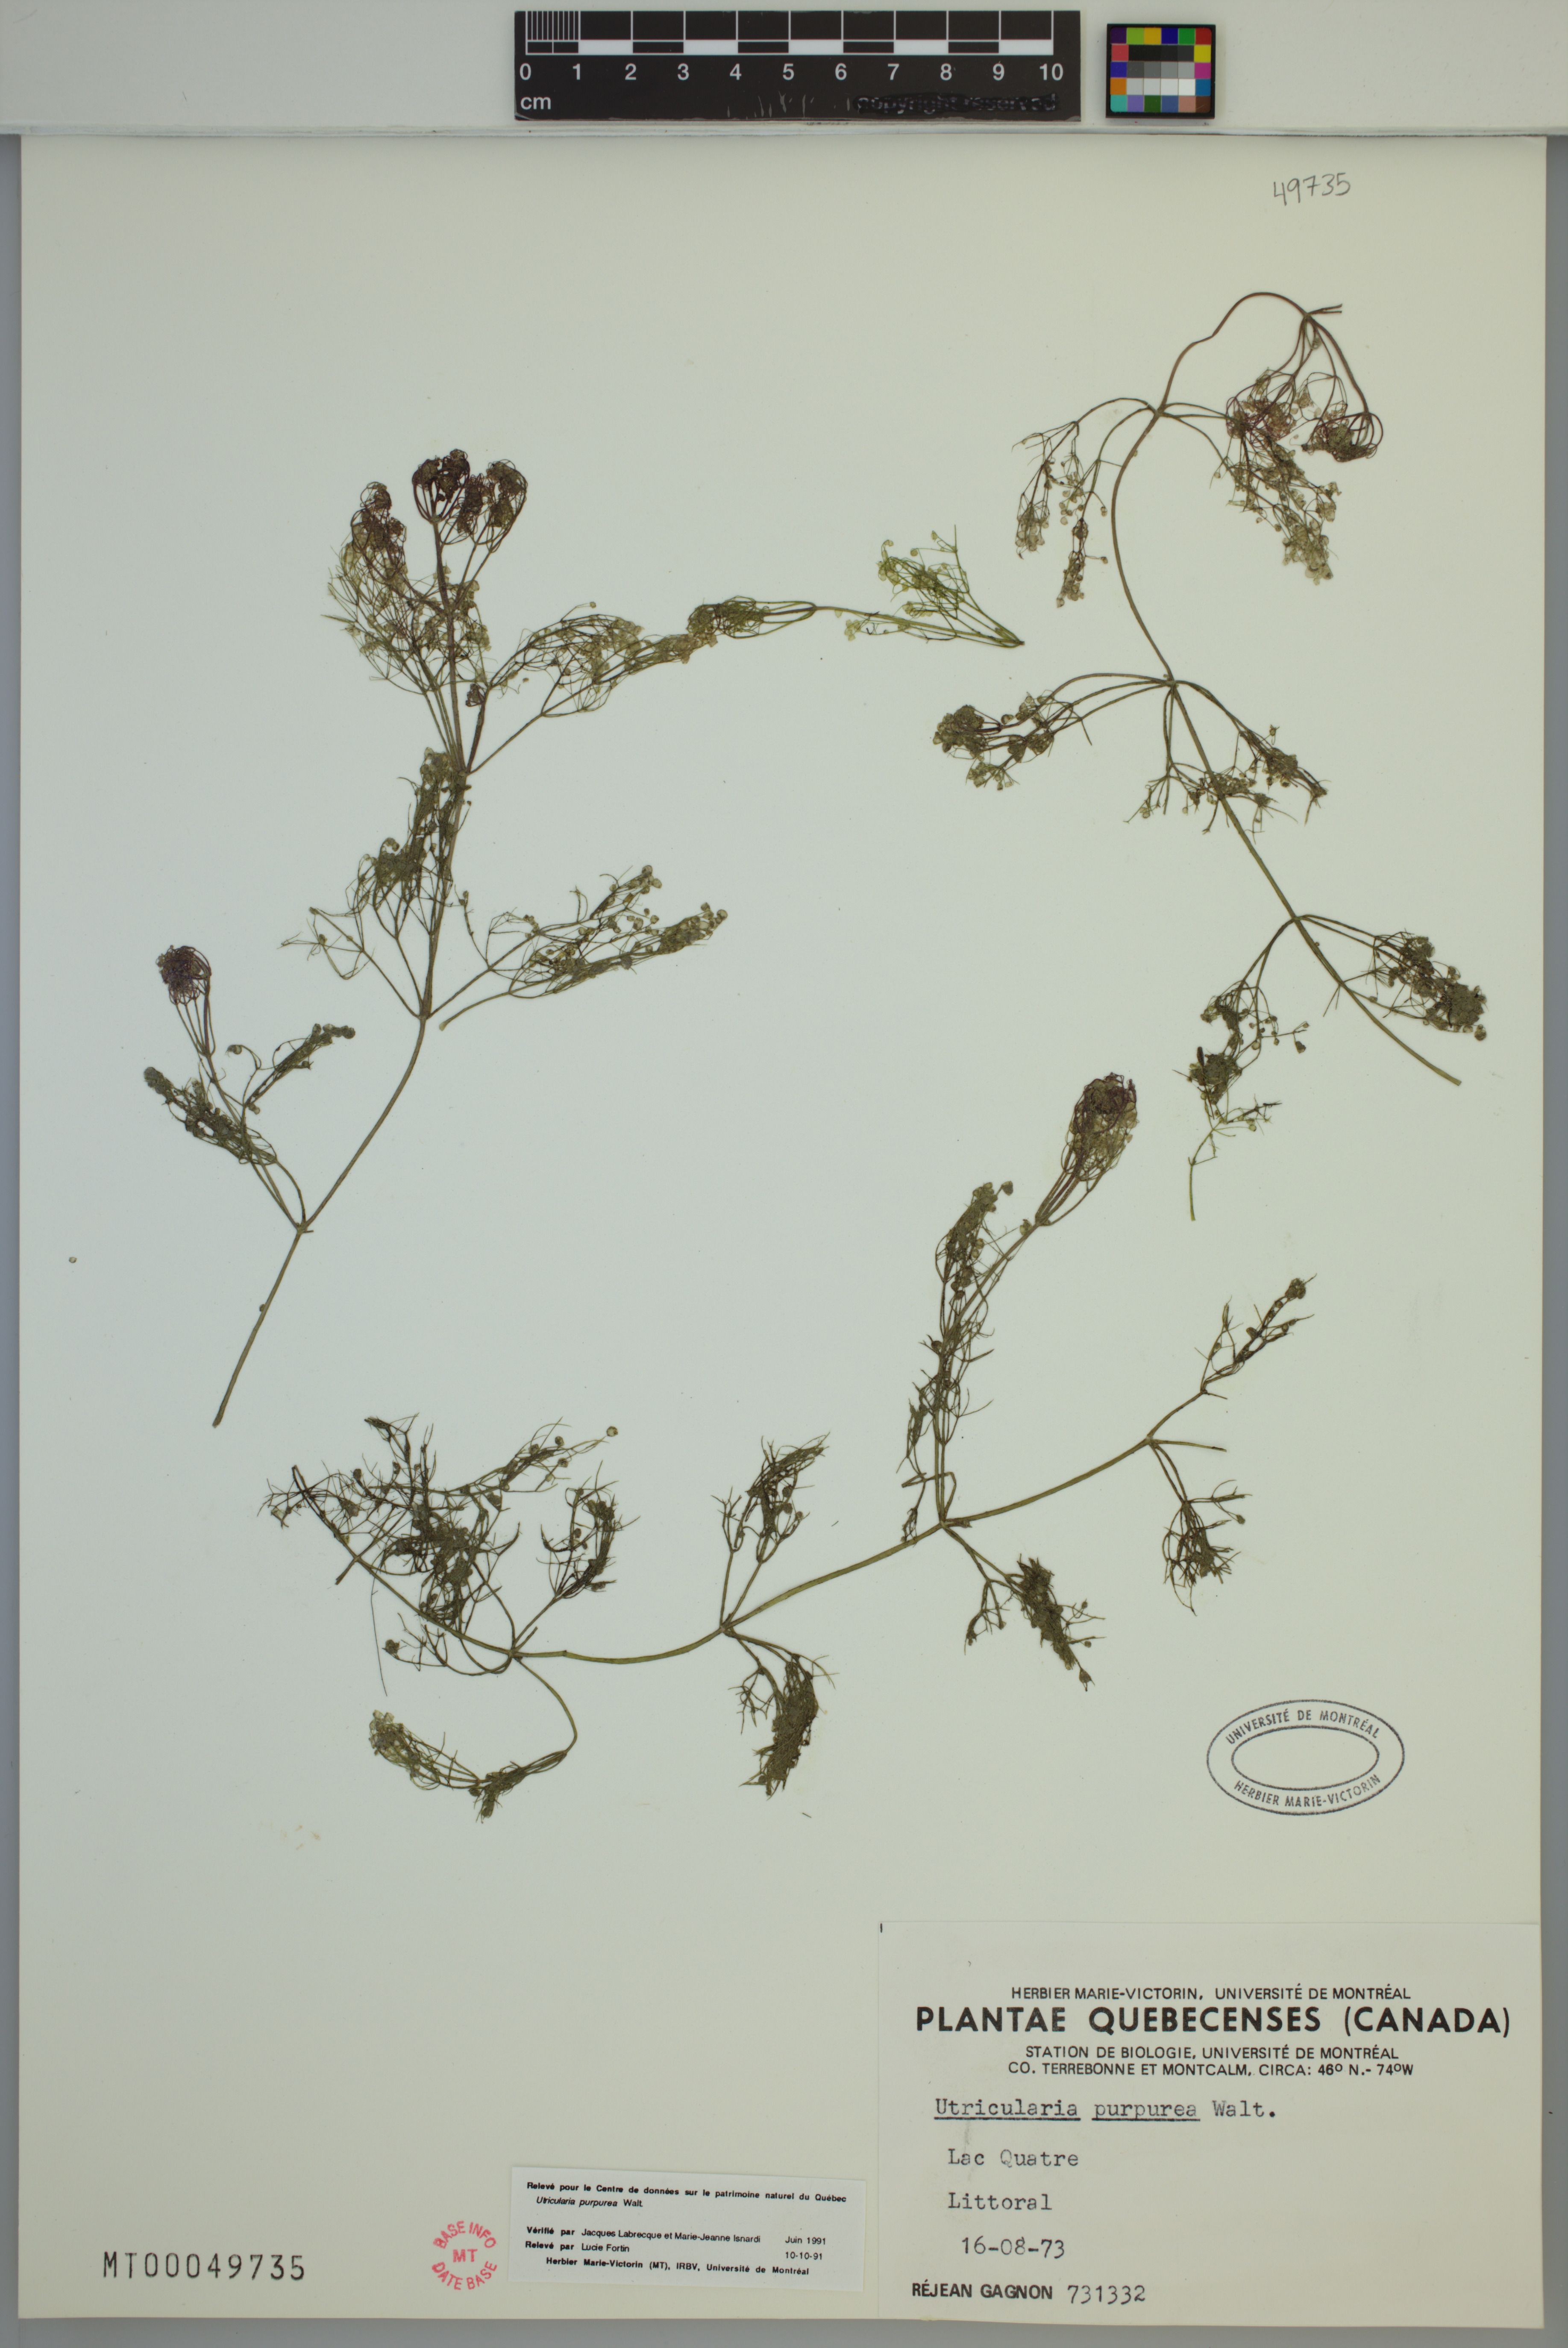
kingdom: Plantae
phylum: Tracheophyta
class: Magnoliopsida
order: Lamiales
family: Lentibulariaceae
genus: Utricularia
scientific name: Utricularia purpurea
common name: Eastern purple bladderwort
